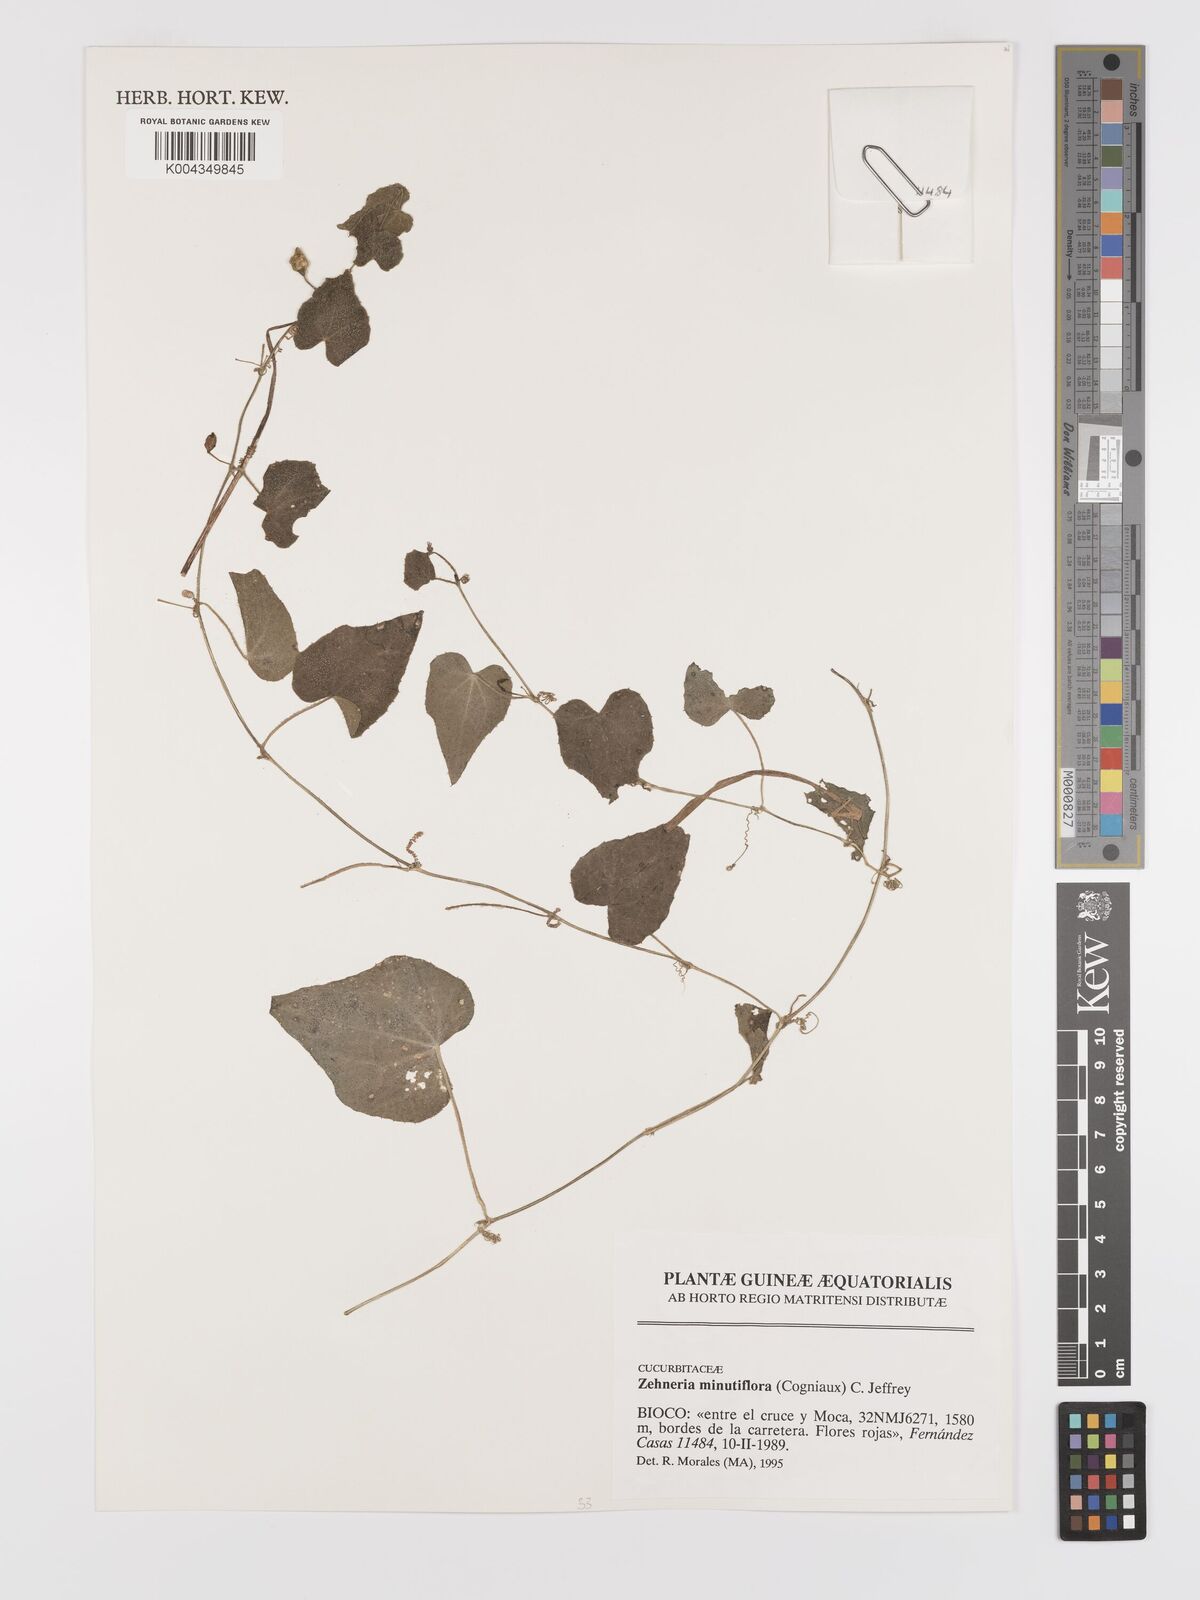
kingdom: Plantae
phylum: Tracheophyta
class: Magnoliopsida
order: Cucurbitales
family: Cucurbitaceae
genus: Zehneria
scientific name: Zehneria minutiflora
